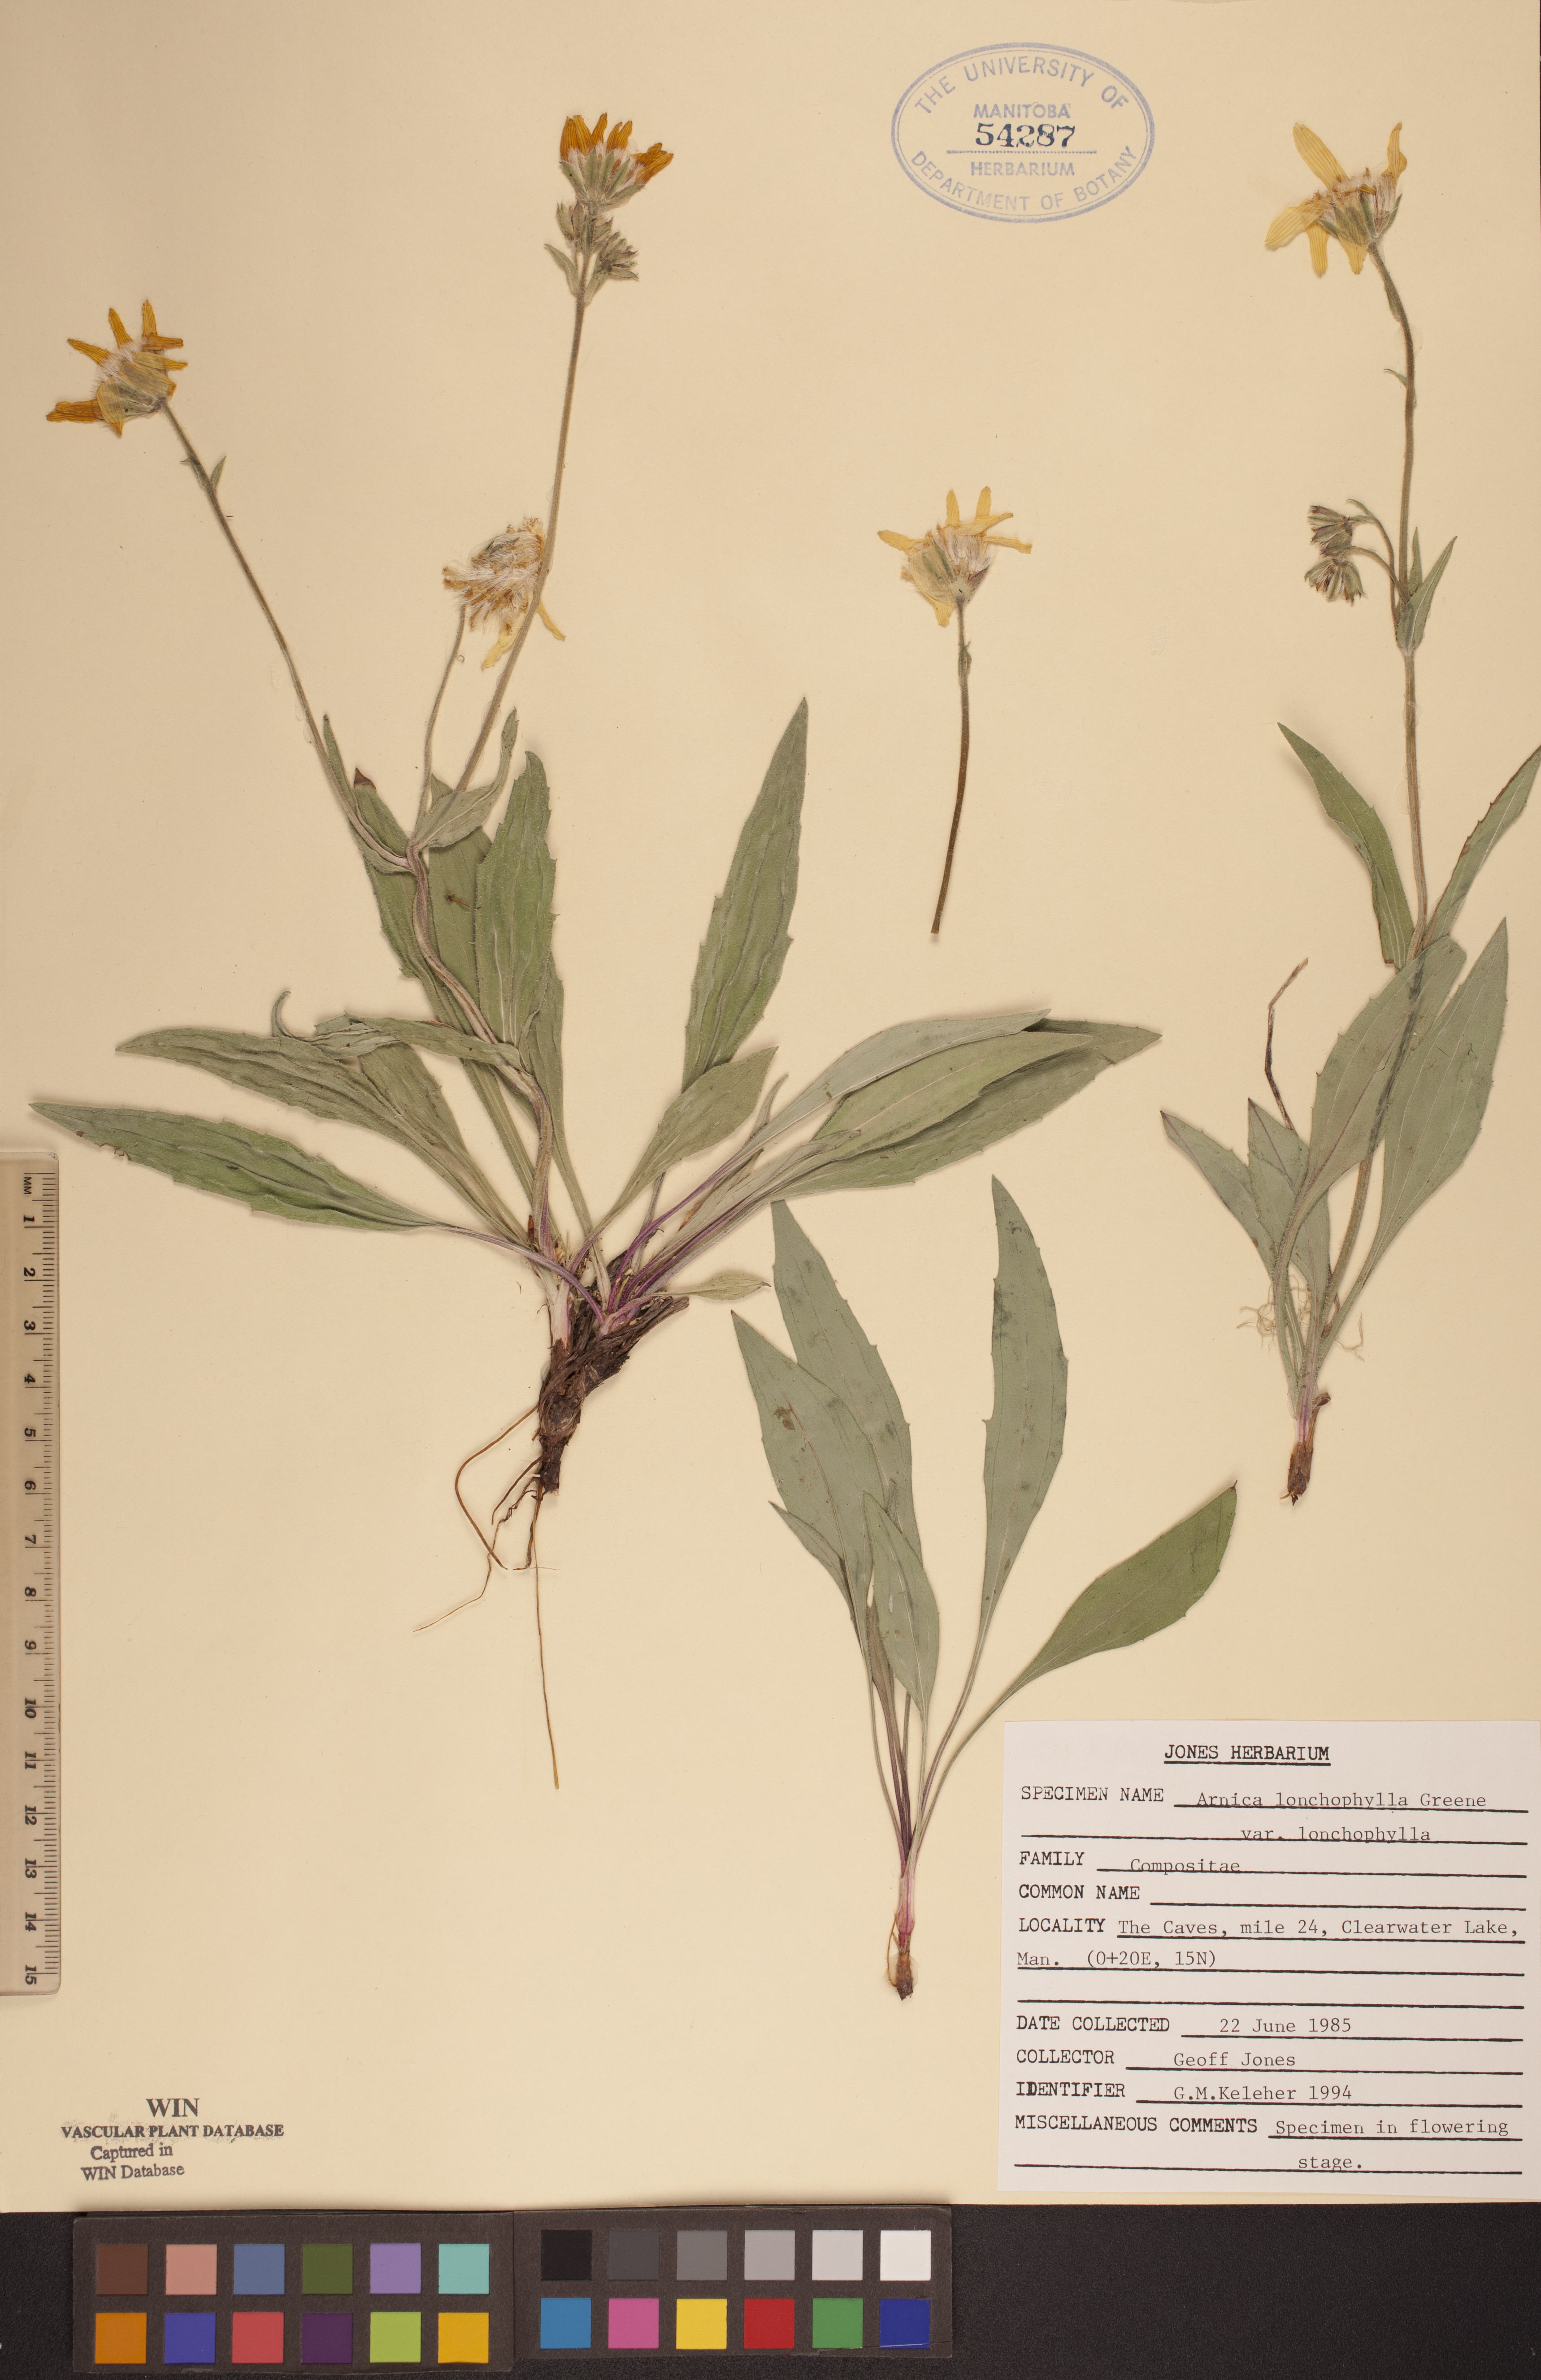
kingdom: Plantae
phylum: Tracheophyta
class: Magnoliopsida
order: Asterales
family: Asteraceae
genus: Arnica
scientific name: Arnica lonchophylla
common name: Northern arnica
